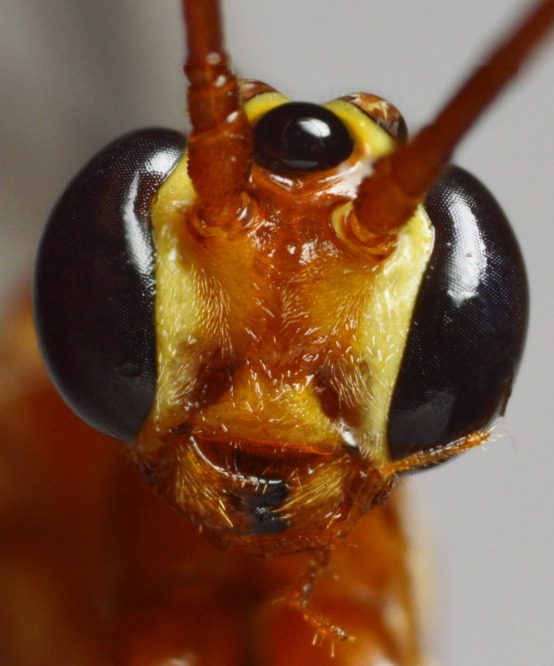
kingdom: Animalia
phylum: Arthropoda
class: Insecta
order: Hymenoptera
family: Ichneumonidae
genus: Ophion
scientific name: Ophion obscuratus
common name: Lys forårsseglhveps
